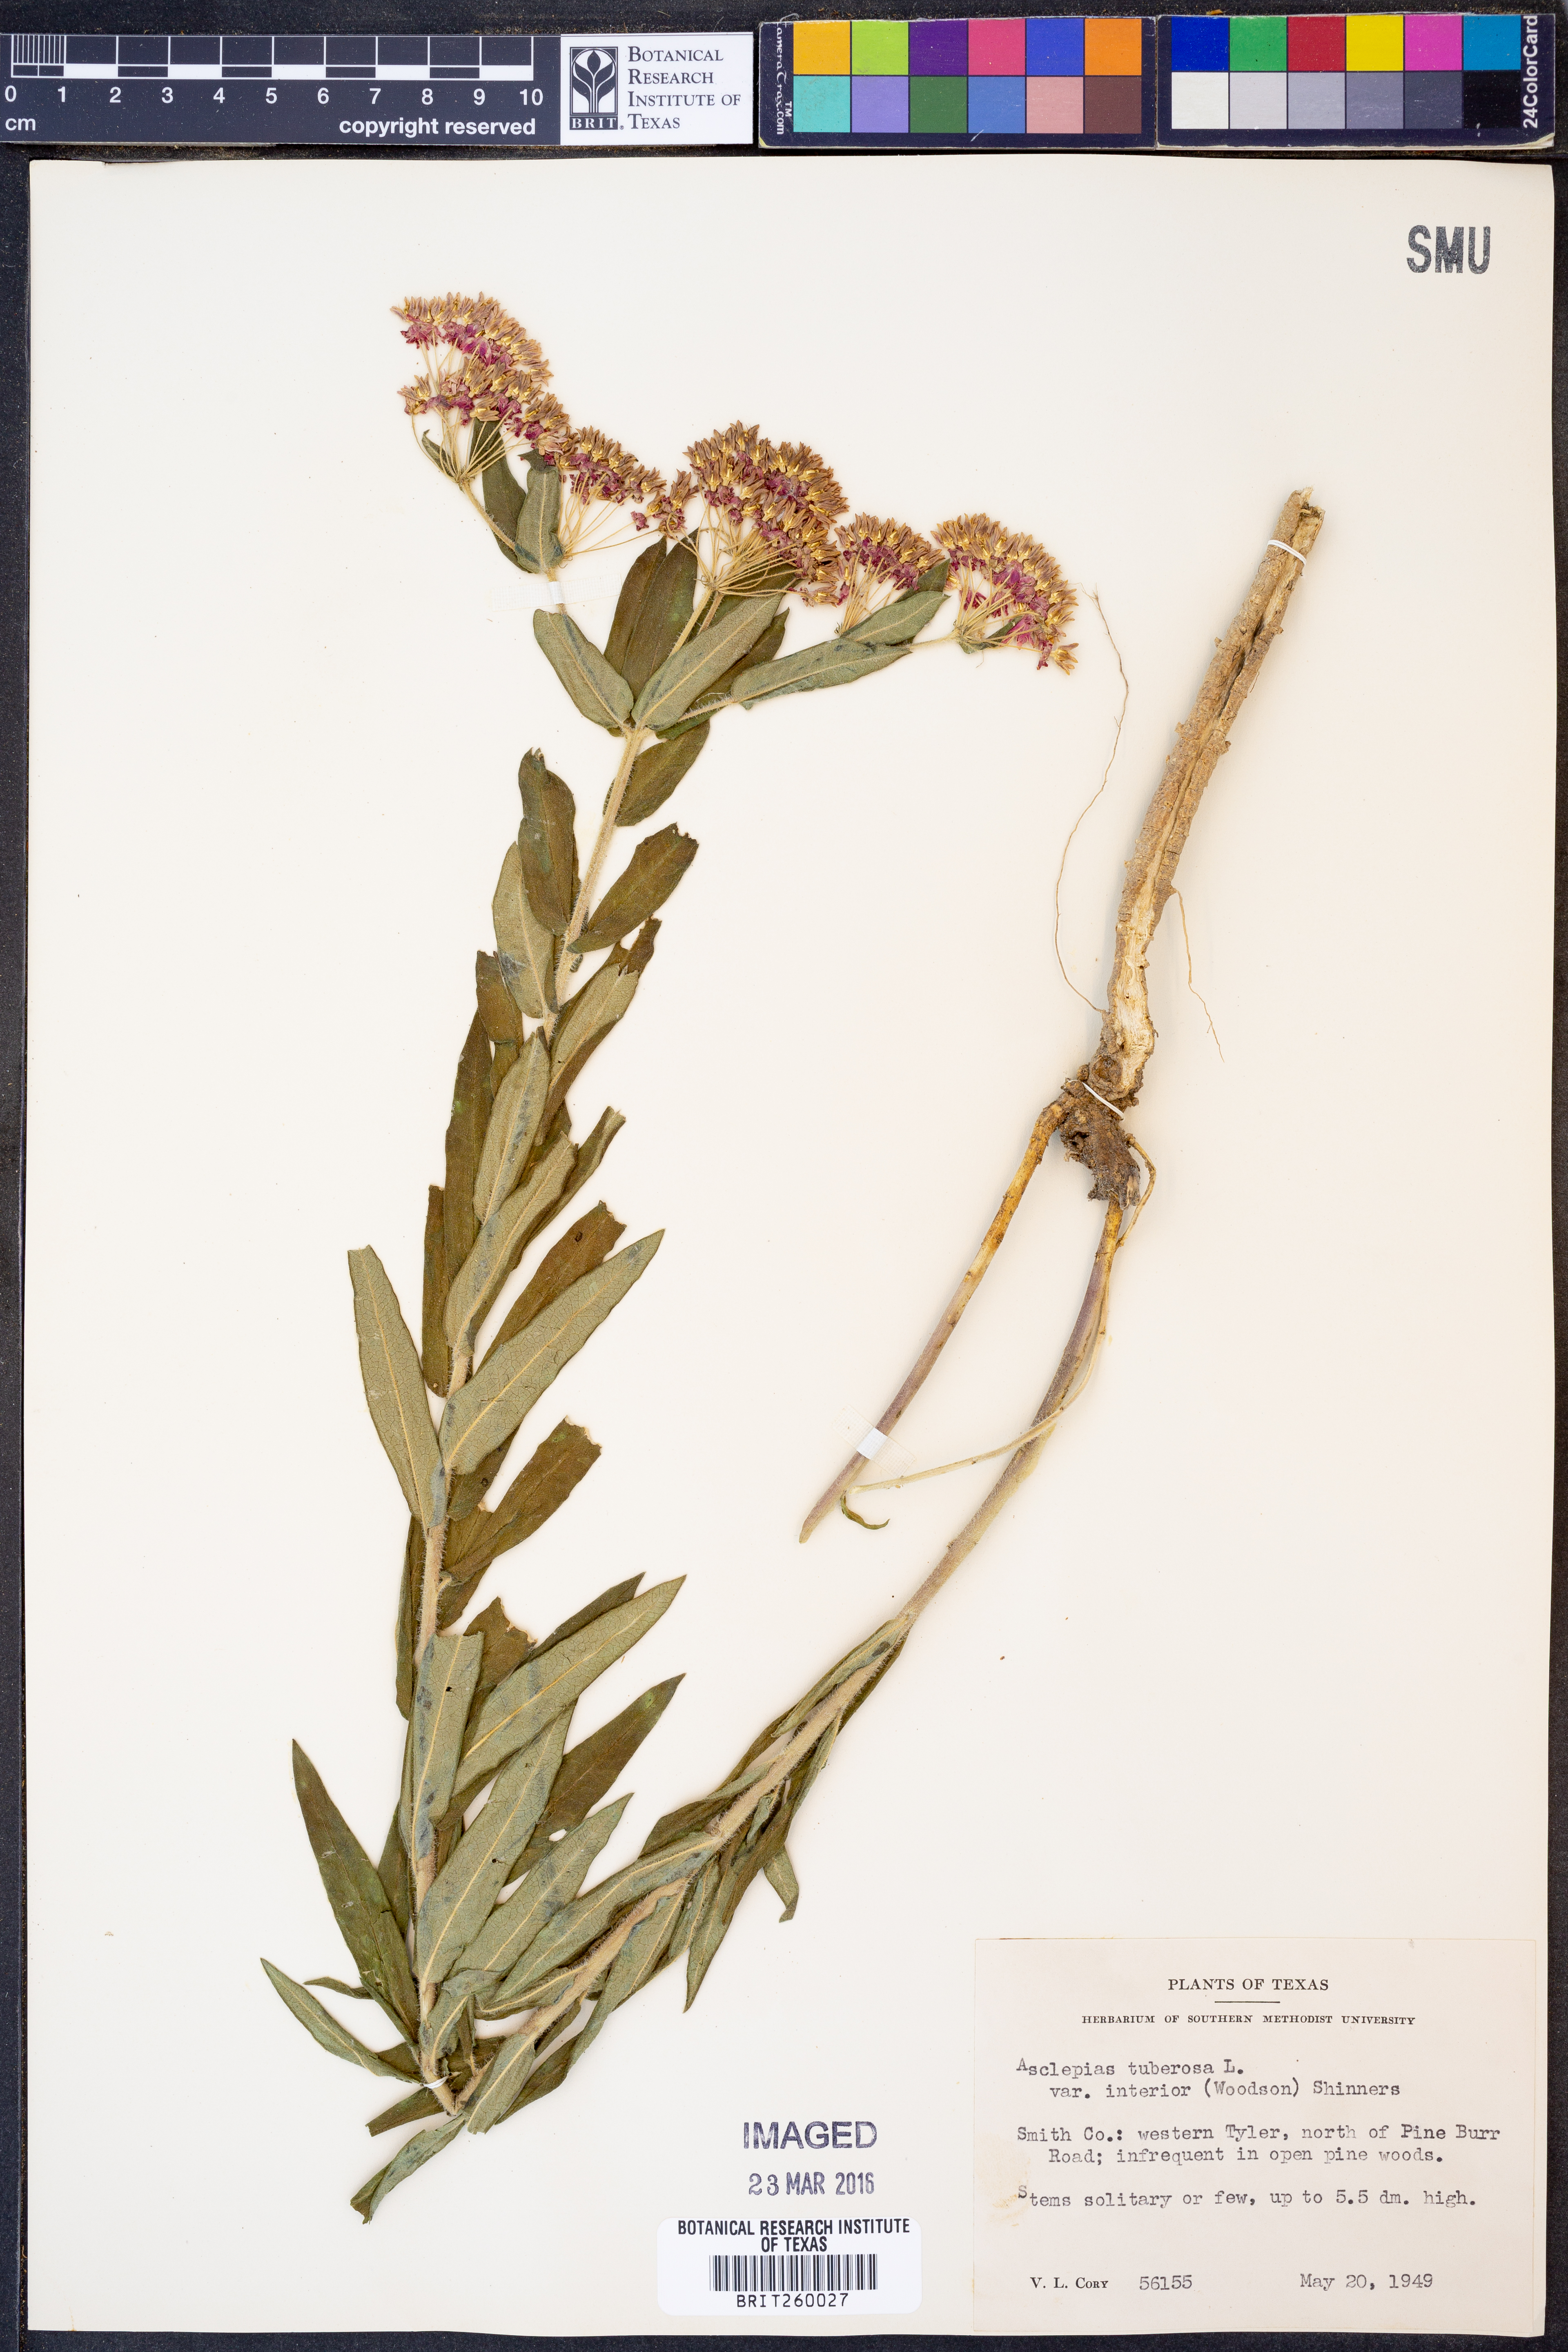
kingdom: Plantae
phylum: Tracheophyta
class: Magnoliopsida
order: Gentianales
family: Apocynaceae
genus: Asclepias
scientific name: Asclepias tuberosa
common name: Butterfly milkweed
